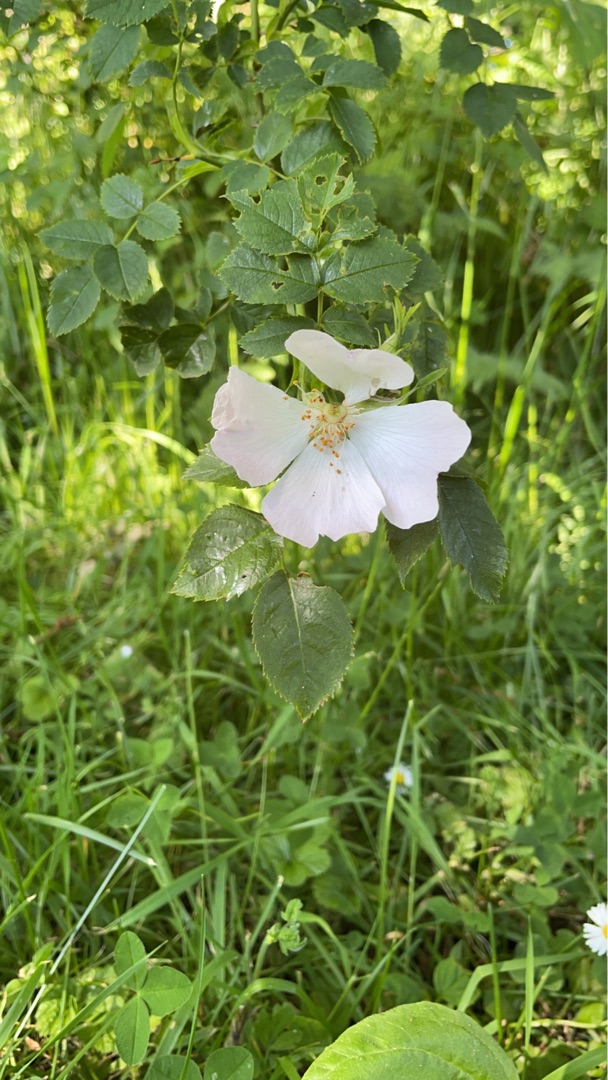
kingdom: Plantae
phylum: Tracheophyta
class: Magnoliopsida
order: Rosales
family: Rosaceae
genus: Rosa
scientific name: Rosa
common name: Roseslægten
